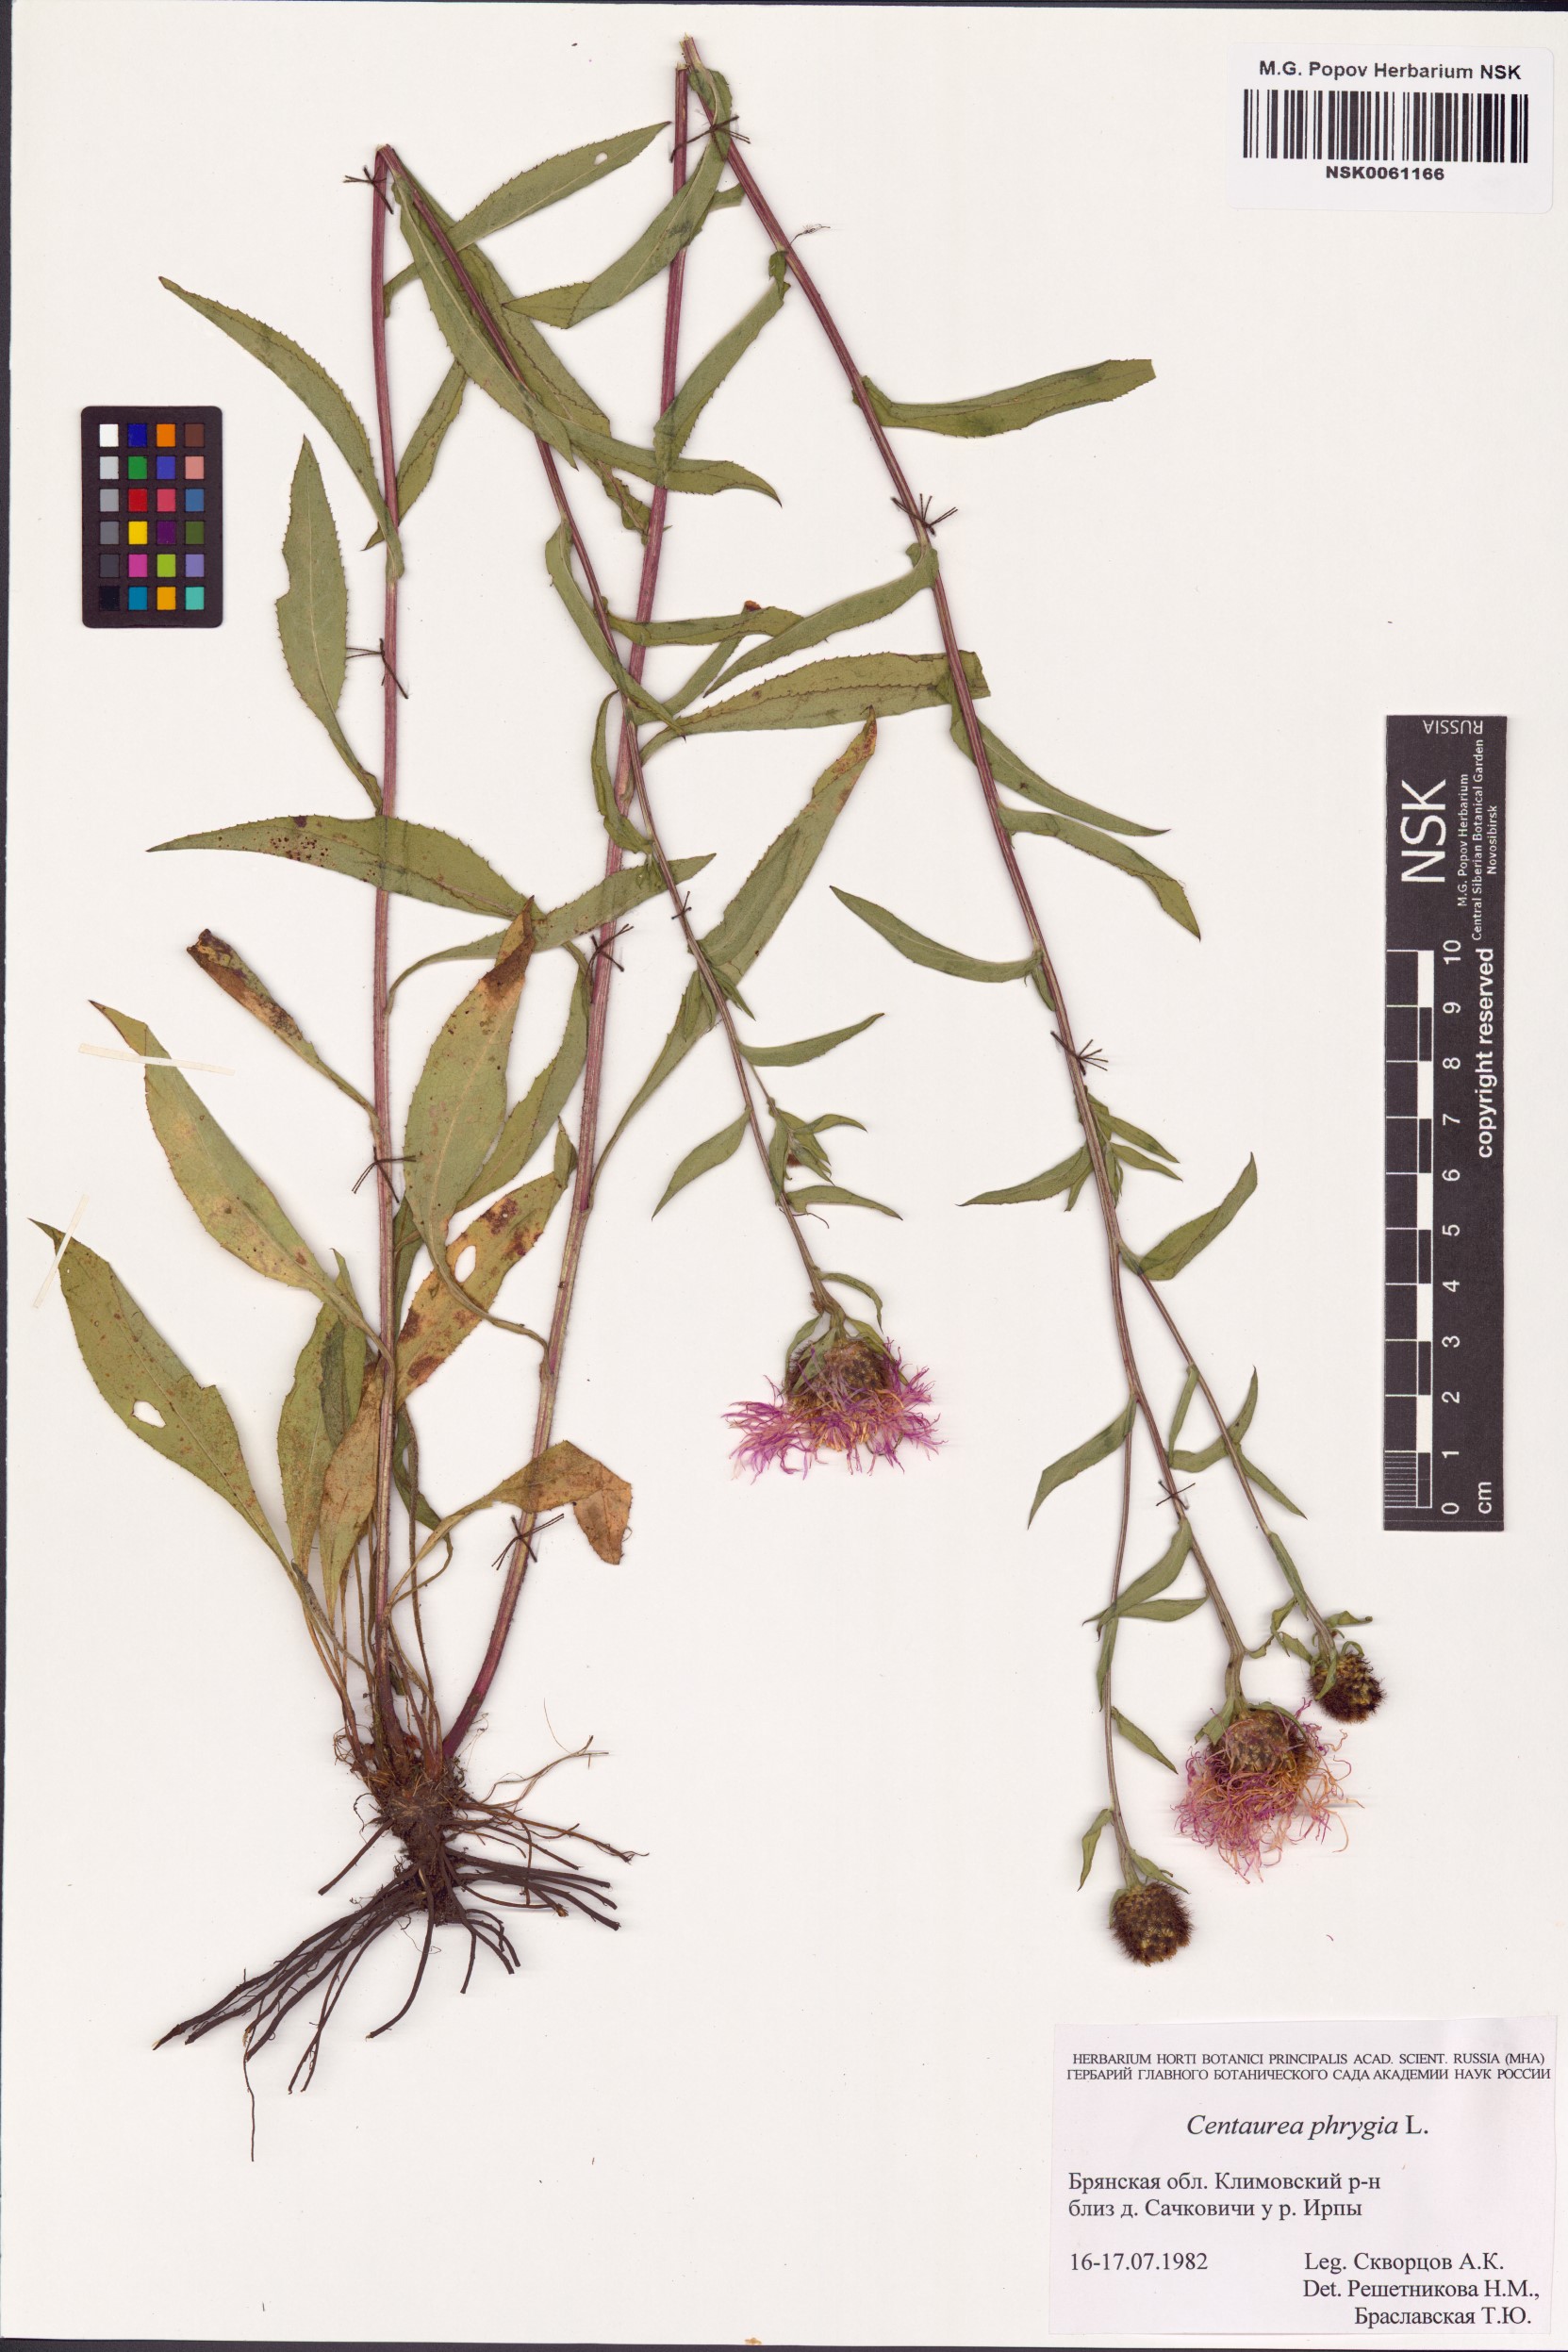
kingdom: Plantae
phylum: Tracheophyta
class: Magnoliopsida
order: Asterales
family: Asteraceae
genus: Centaurea
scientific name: Centaurea kerneriana
